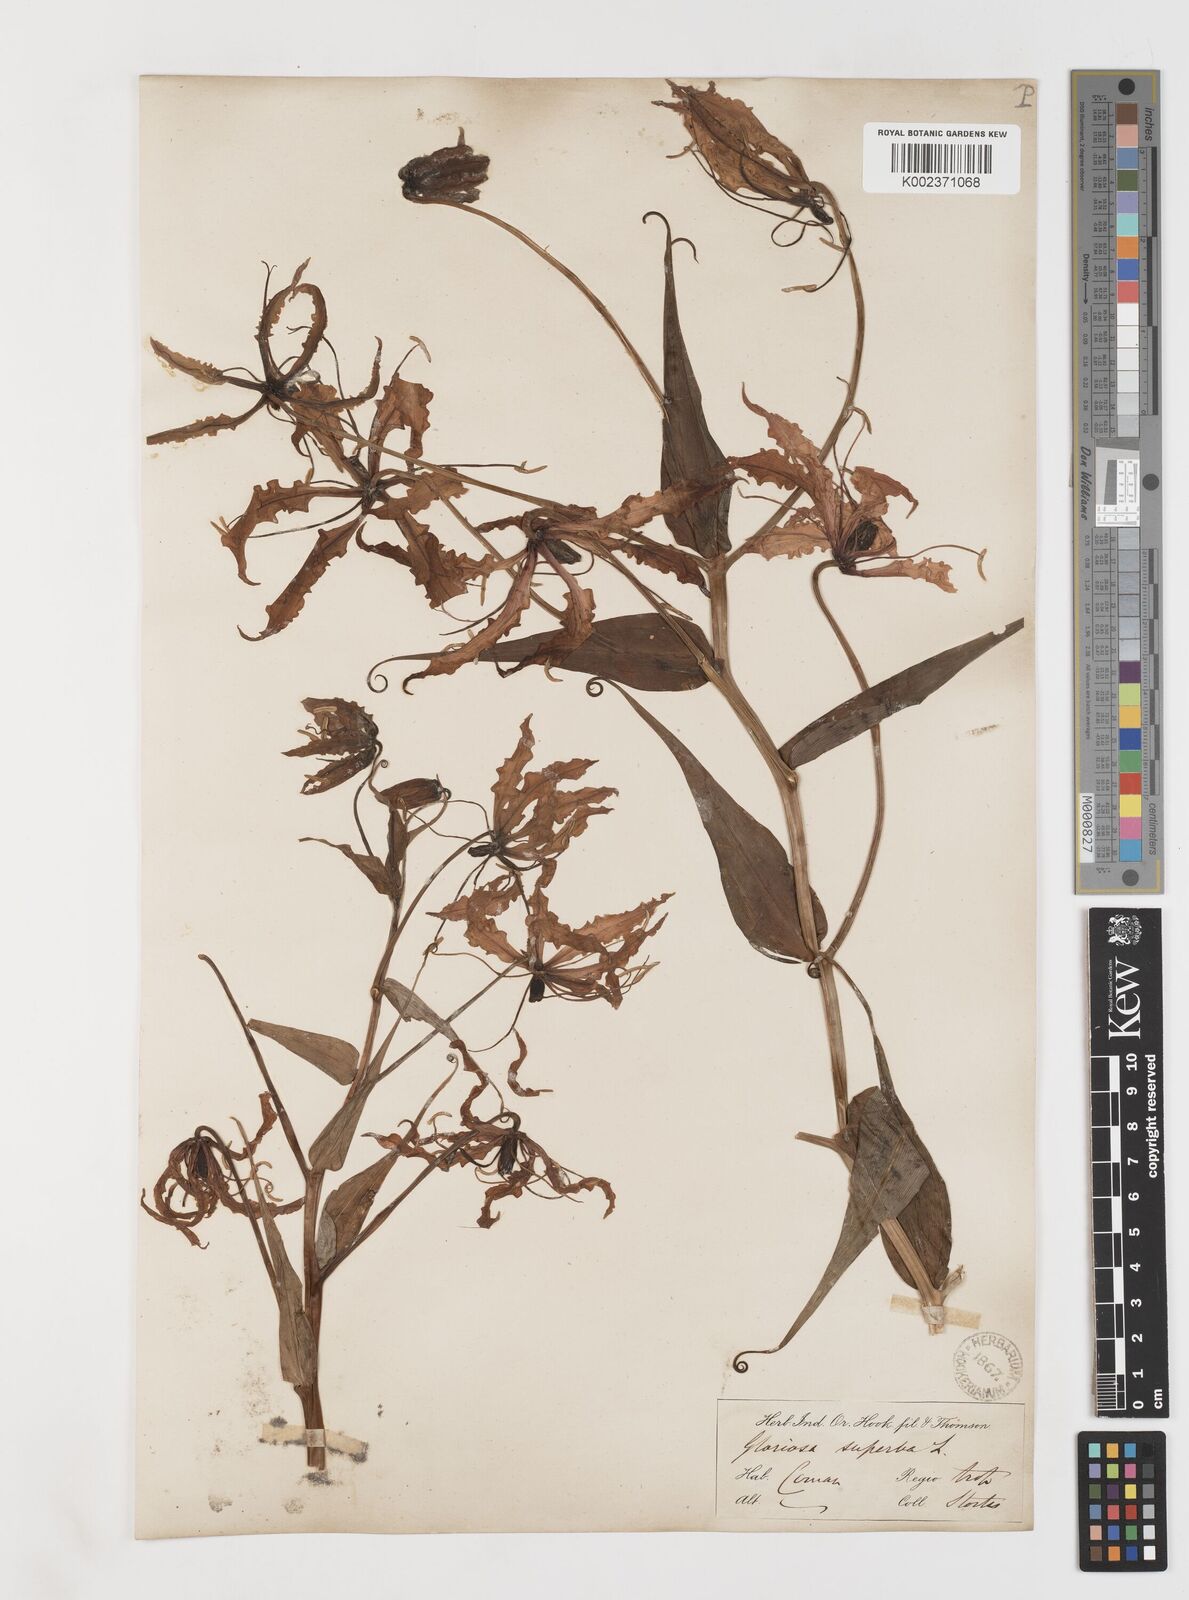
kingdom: Plantae
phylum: Tracheophyta
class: Liliopsida
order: Liliales
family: Colchicaceae
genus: Gloriosa
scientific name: Gloriosa superba
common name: Flame lily
